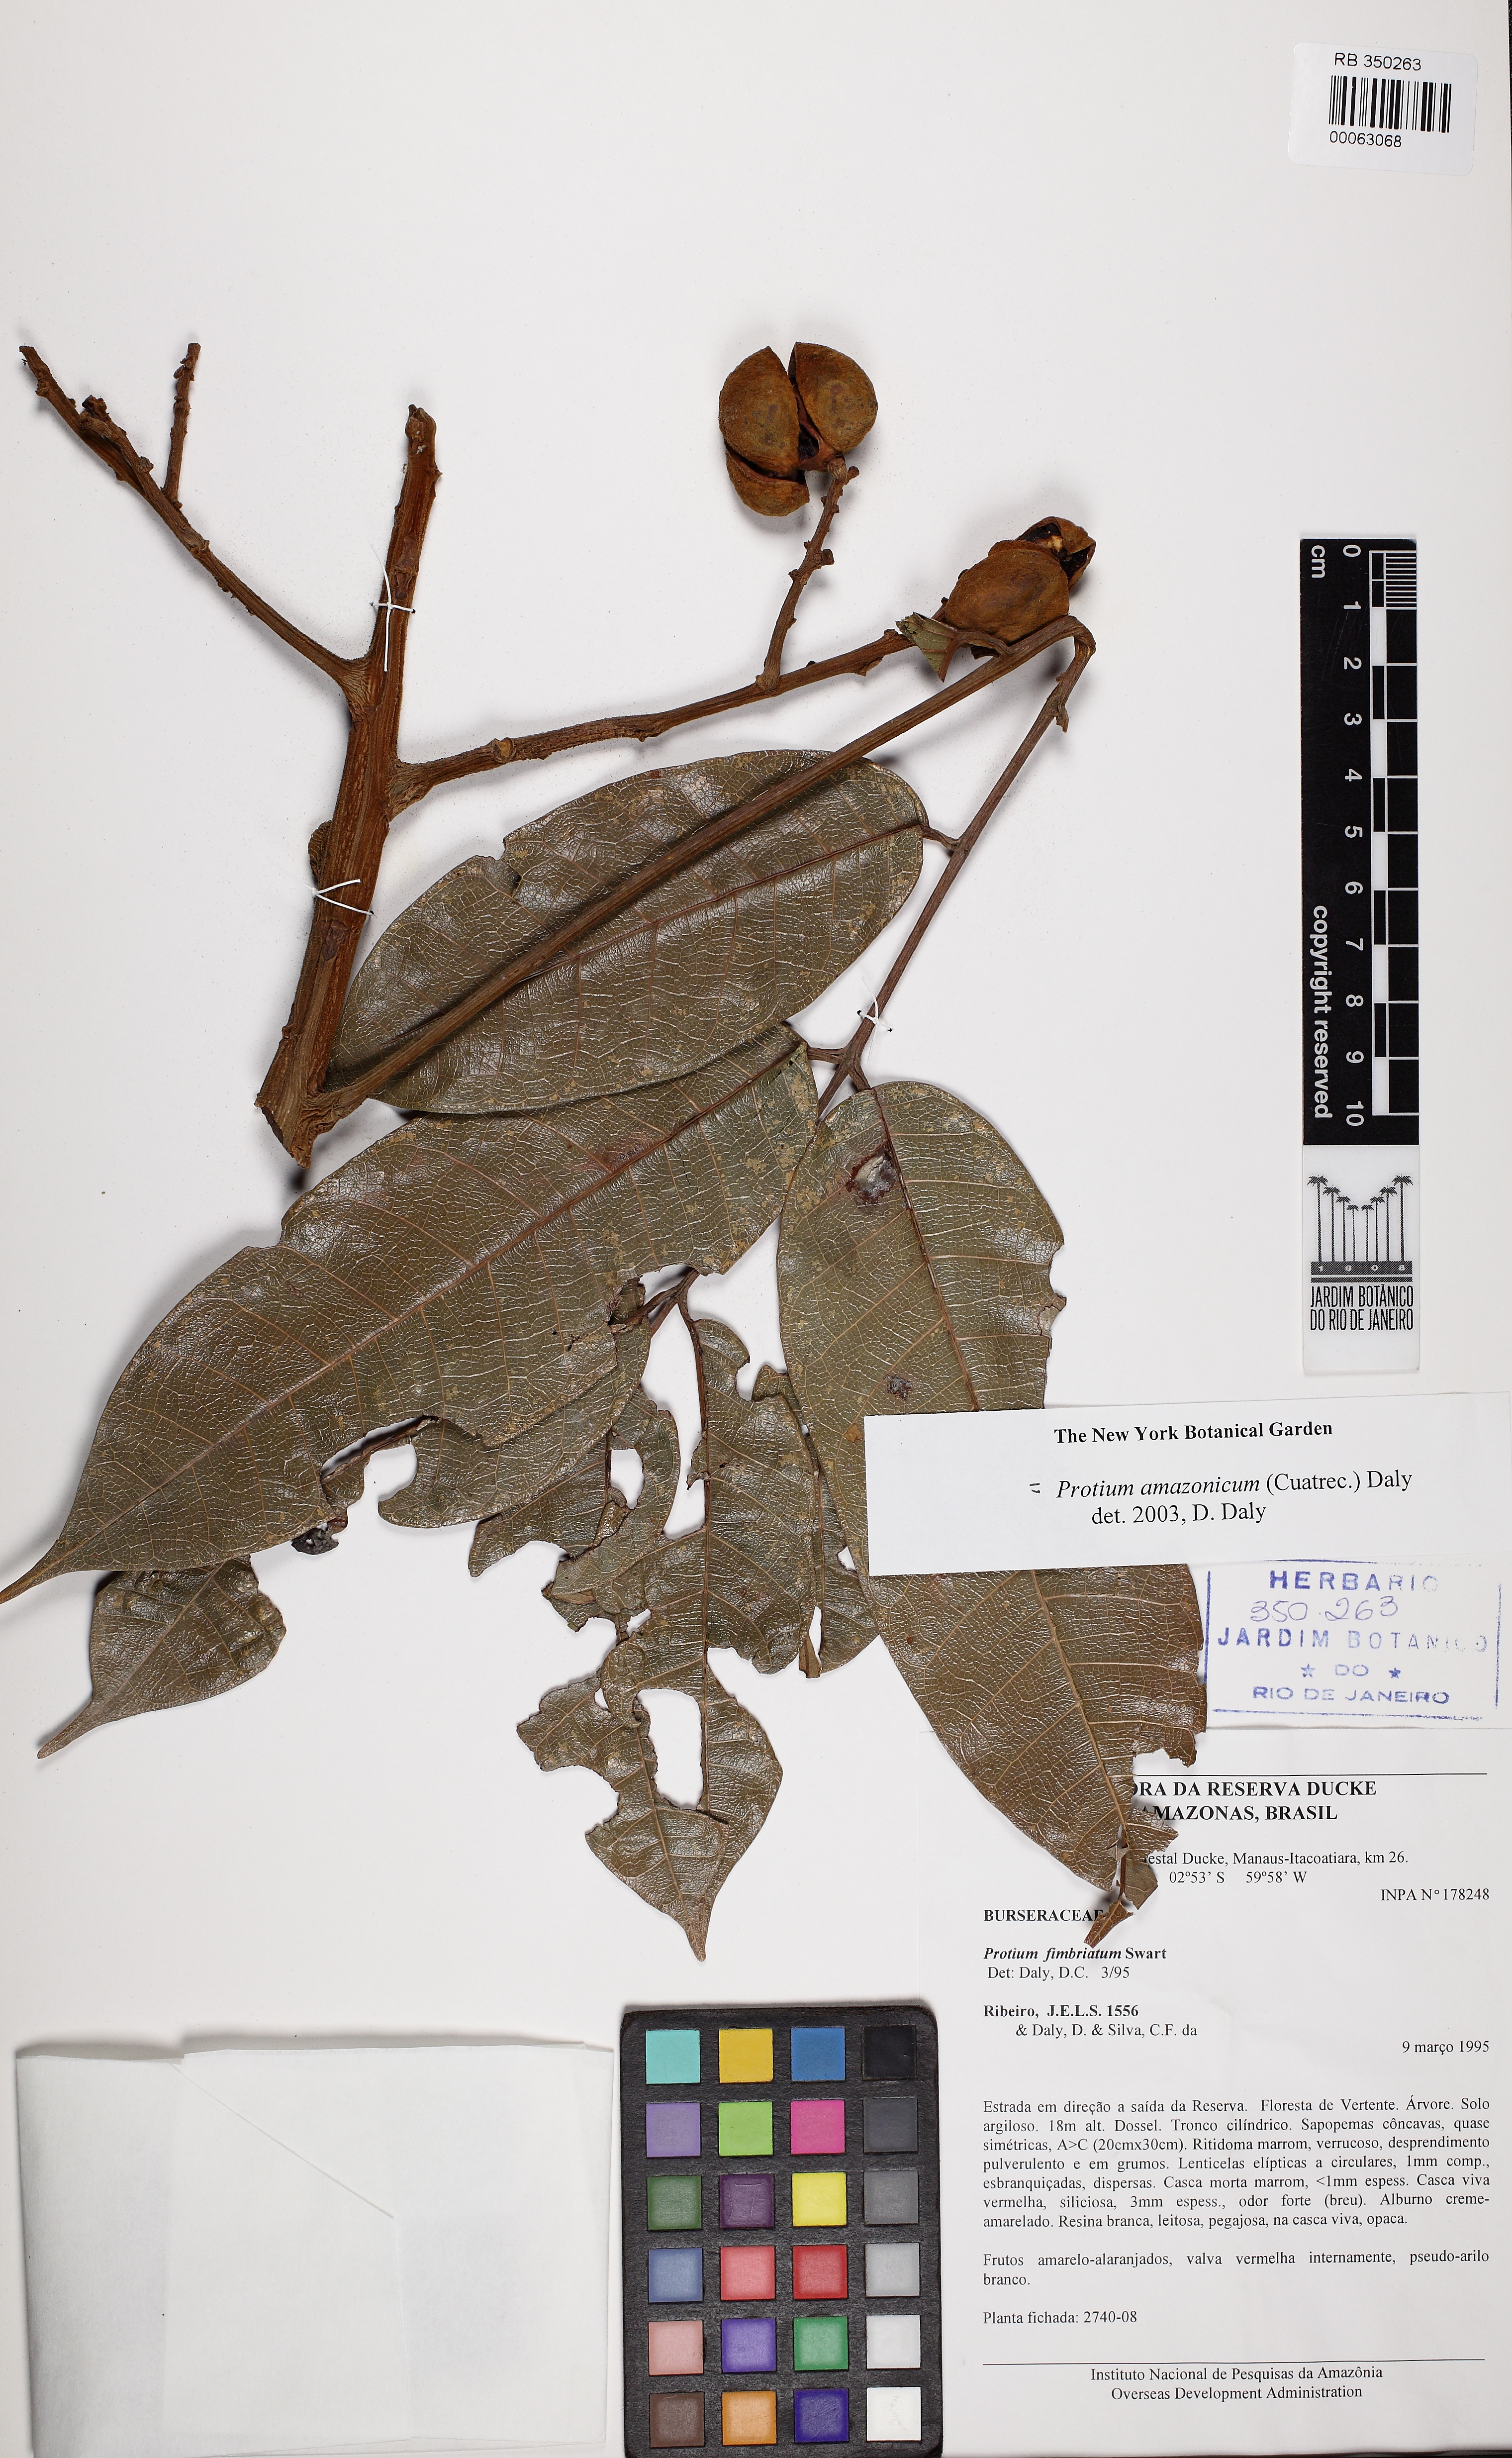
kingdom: Plantae
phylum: Tracheophyta
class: Magnoliopsida
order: Sapindales
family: Burseraceae
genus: Protium
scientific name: Protium amazonicum
